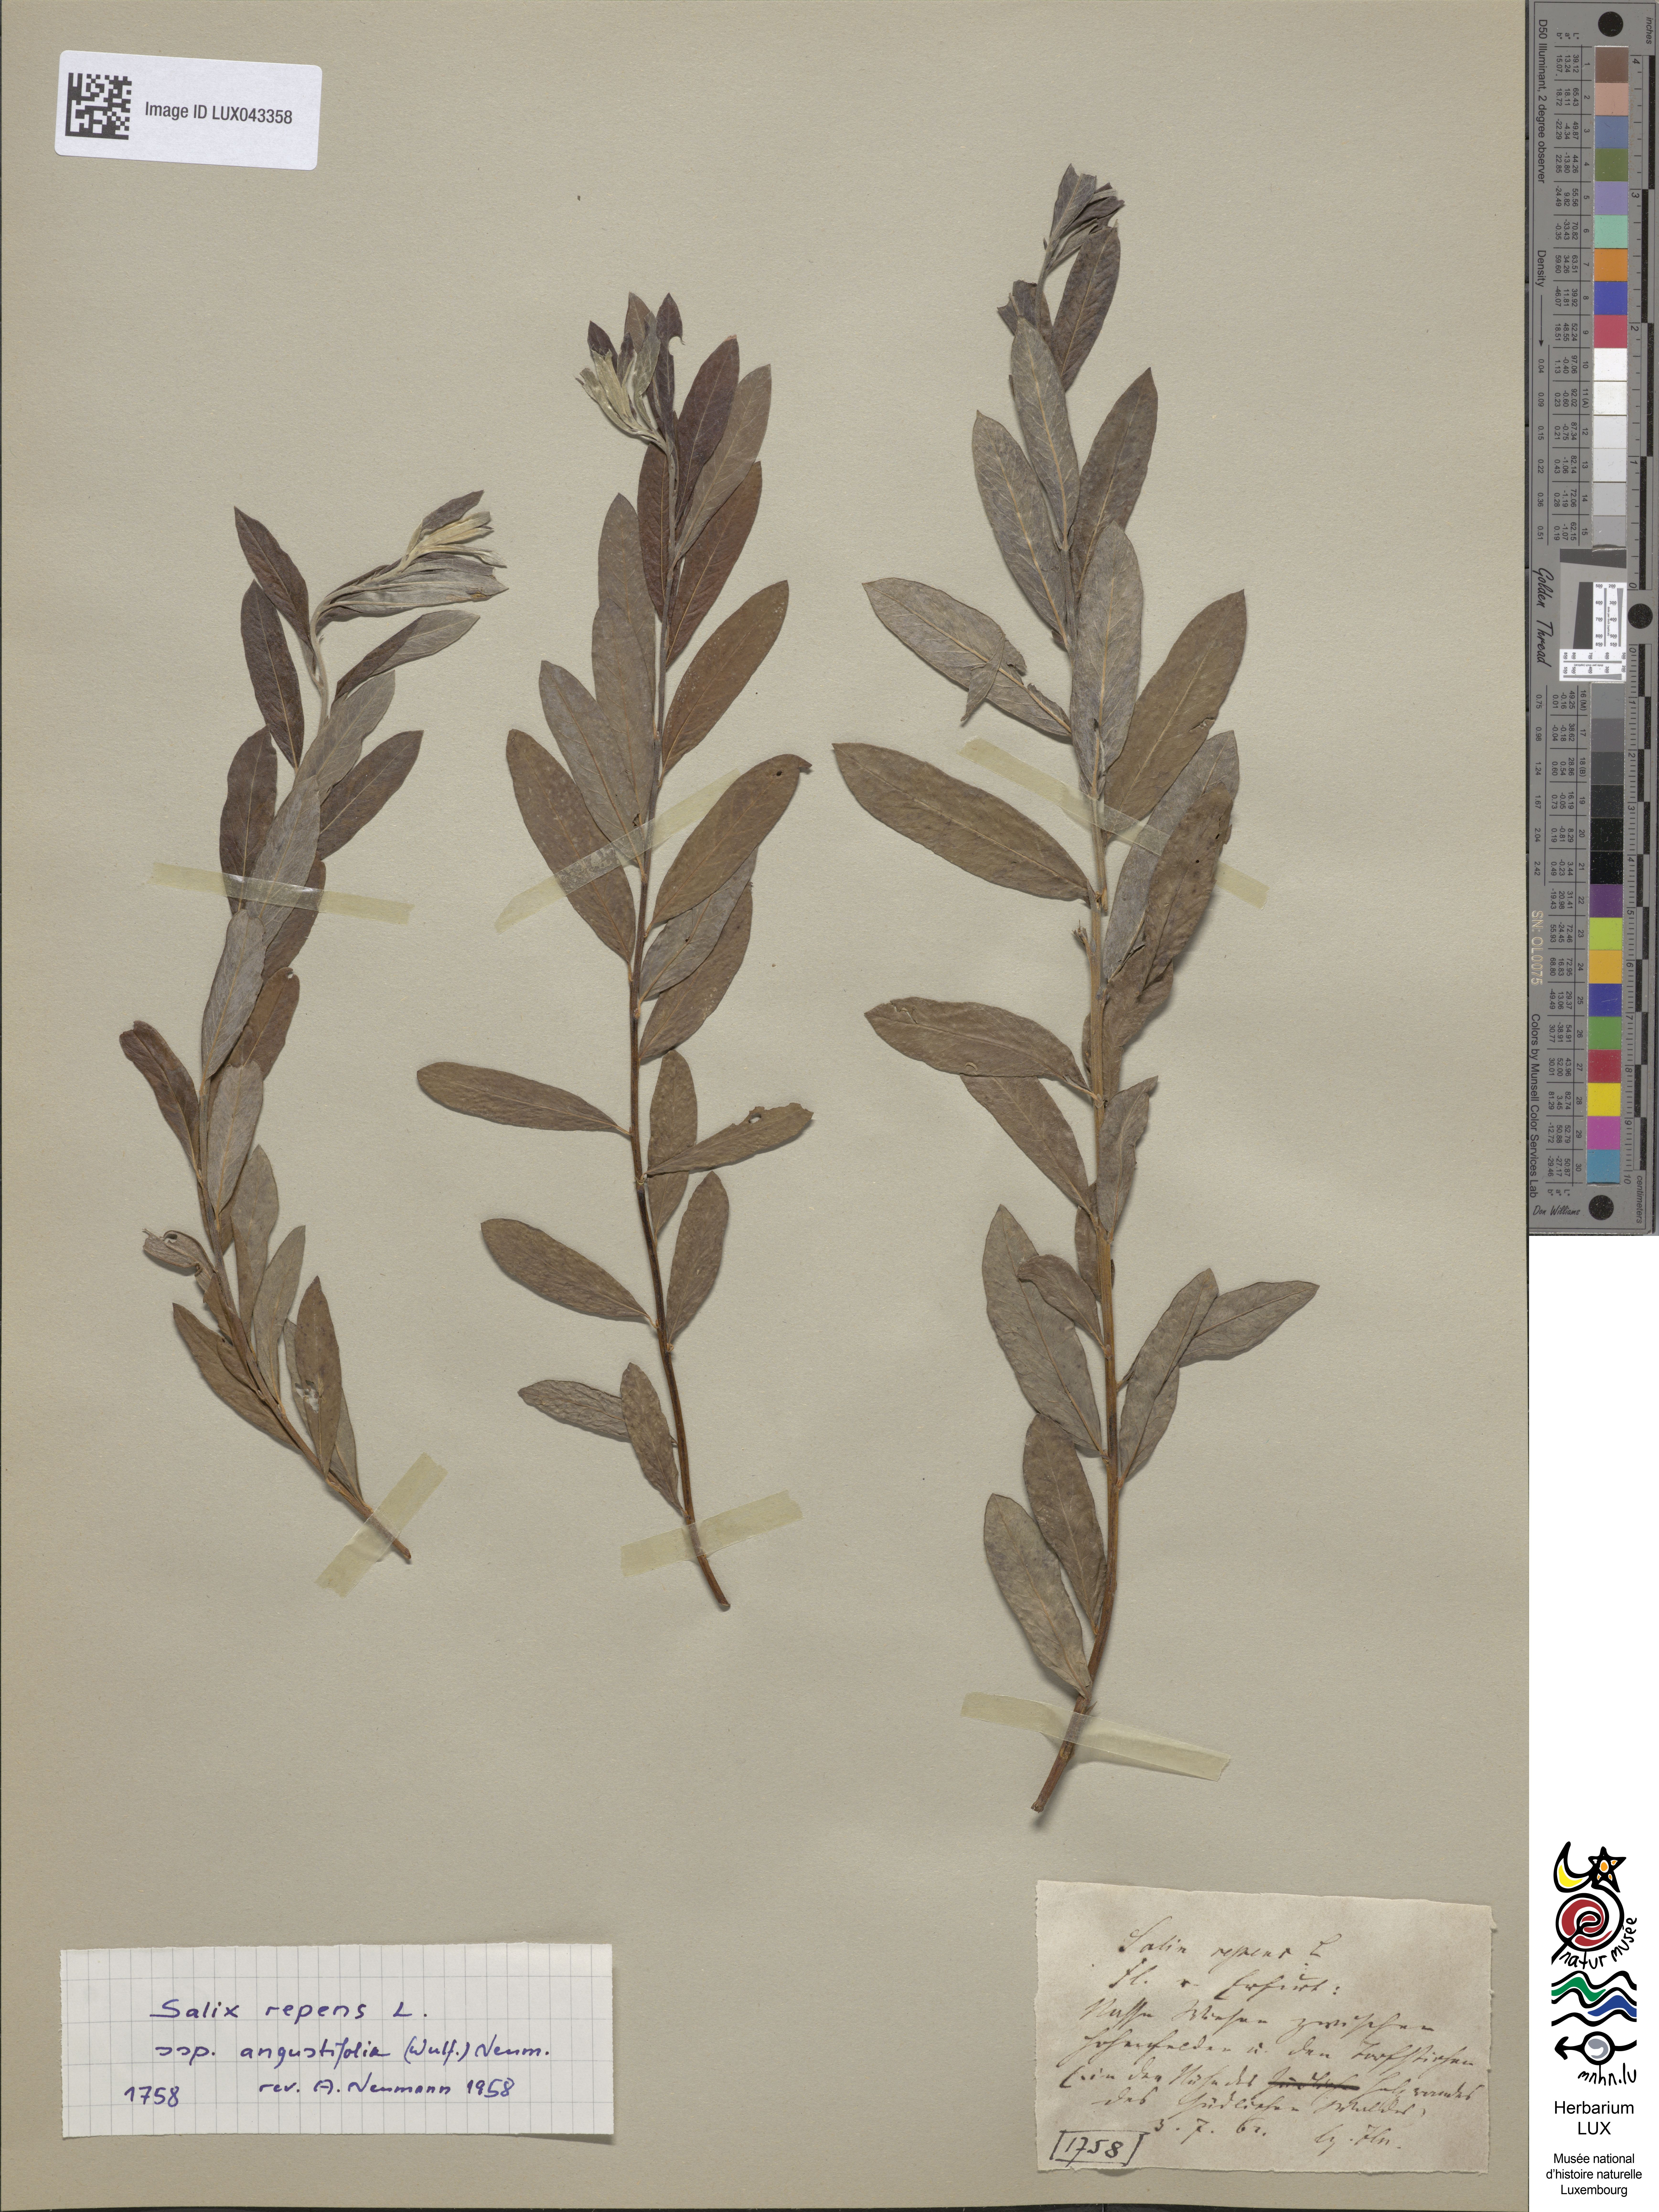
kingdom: Plantae
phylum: Tracheophyta
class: Magnoliopsida
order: Malpighiales
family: Salicaceae
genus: Salix
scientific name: Salix repens
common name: Creeping willow
